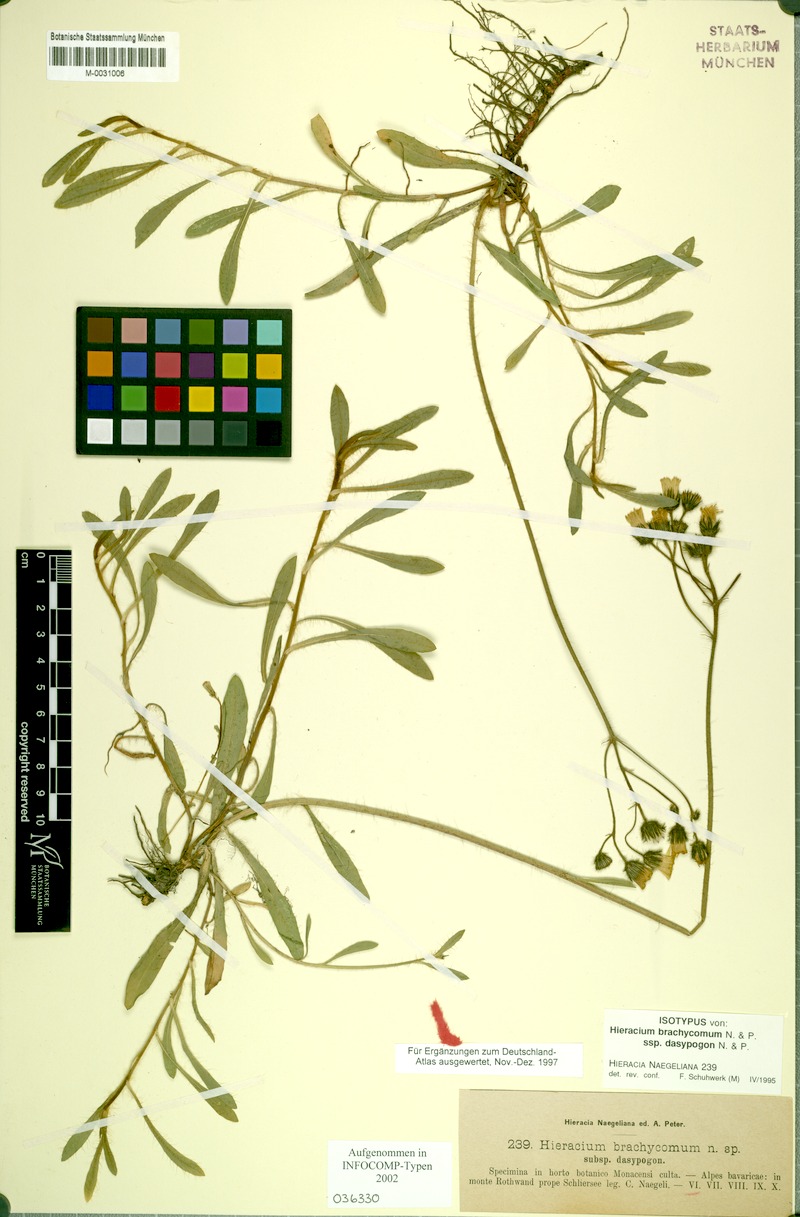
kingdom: Plantae
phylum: Tracheophyta
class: Magnoliopsida
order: Asterales
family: Asteraceae
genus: Pilosella
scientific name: Pilosella brachycoma
